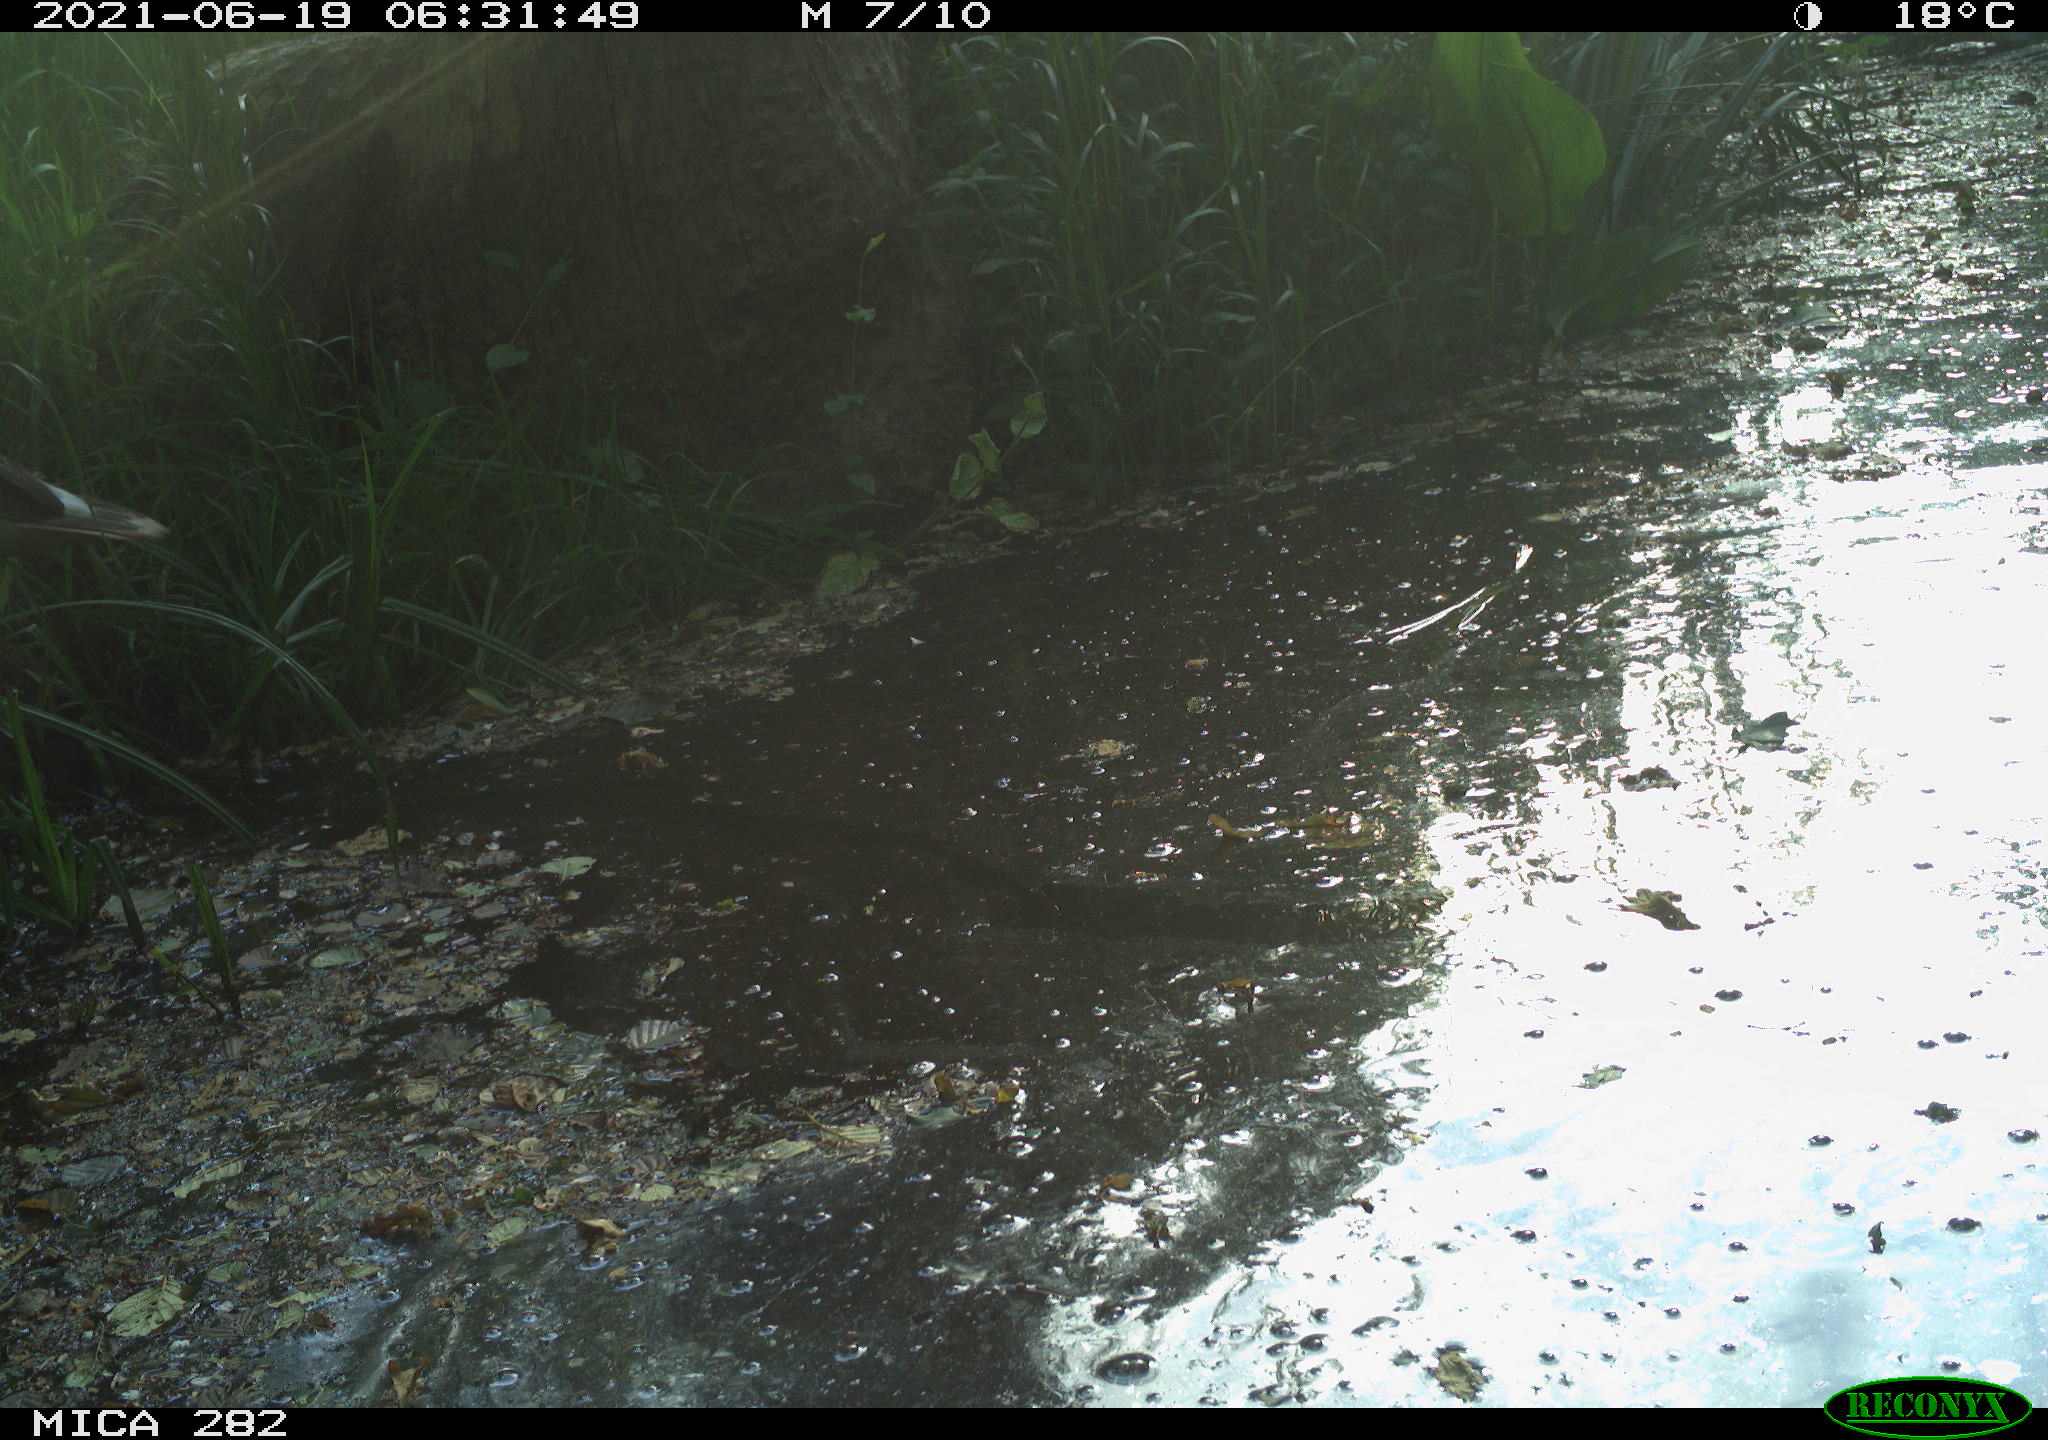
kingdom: Animalia
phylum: Chordata
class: Aves
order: Anseriformes
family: Anatidae
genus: Anser
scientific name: Anser anser
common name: Greylag goose
